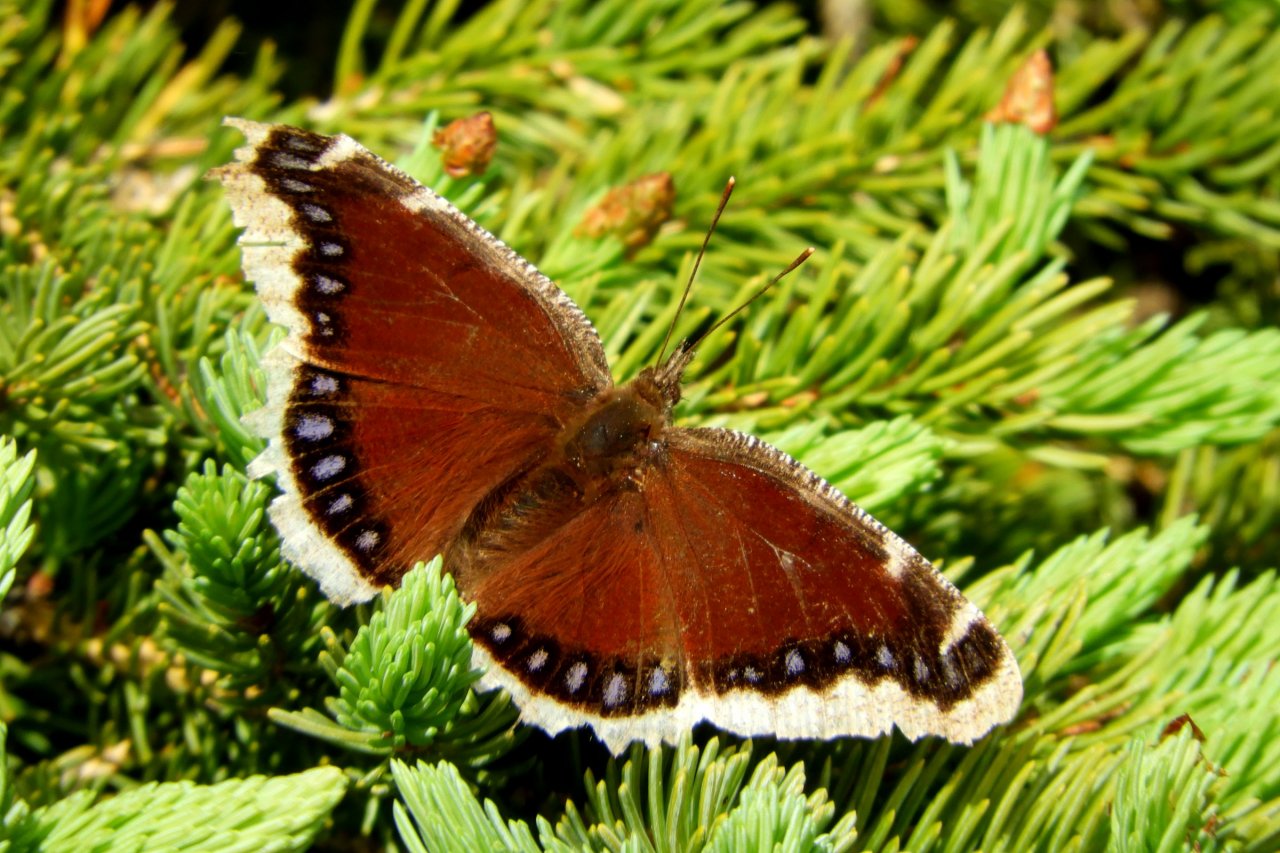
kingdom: Animalia
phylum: Arthropoda
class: Insecta
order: Lepidoptera
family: Nymphalidae
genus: Nymphalis
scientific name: Nymphalis antiopa
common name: Mourning Cloak
